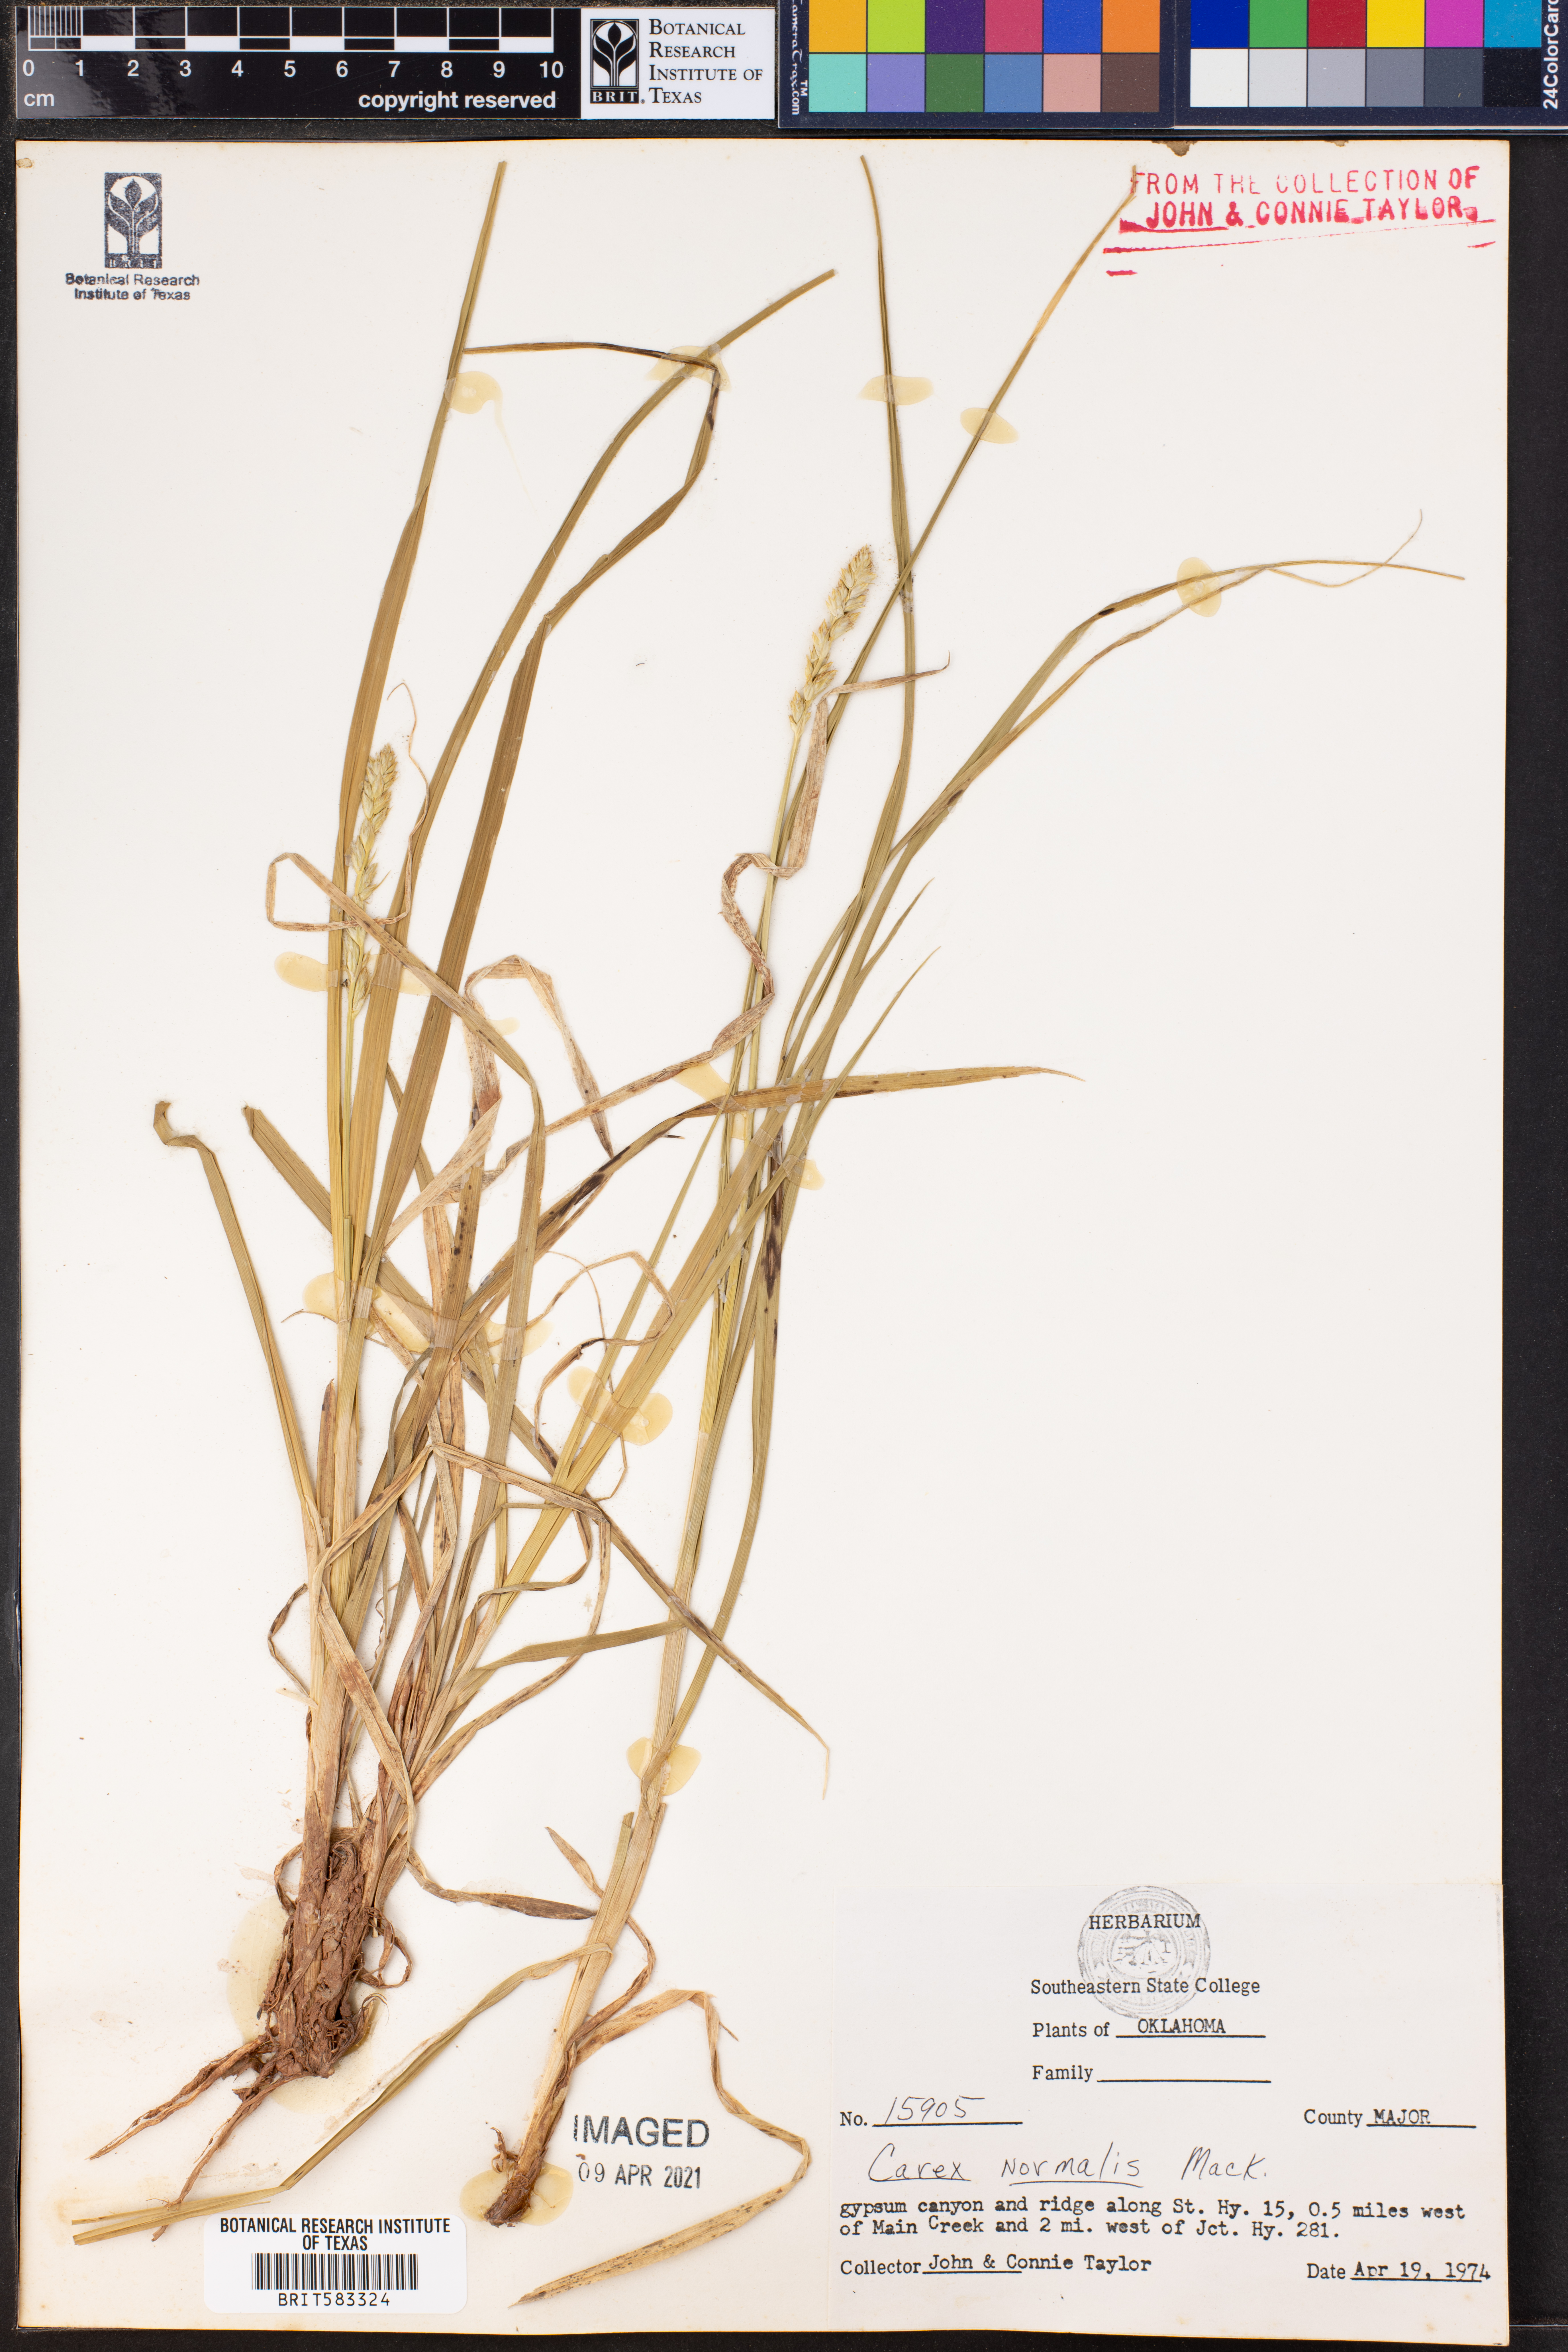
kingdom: Plantae
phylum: Tracheophyta
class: Liliopsida
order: Poales
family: Cyperaceae
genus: Carex
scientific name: Carex normalis
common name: Greater straw sedge
